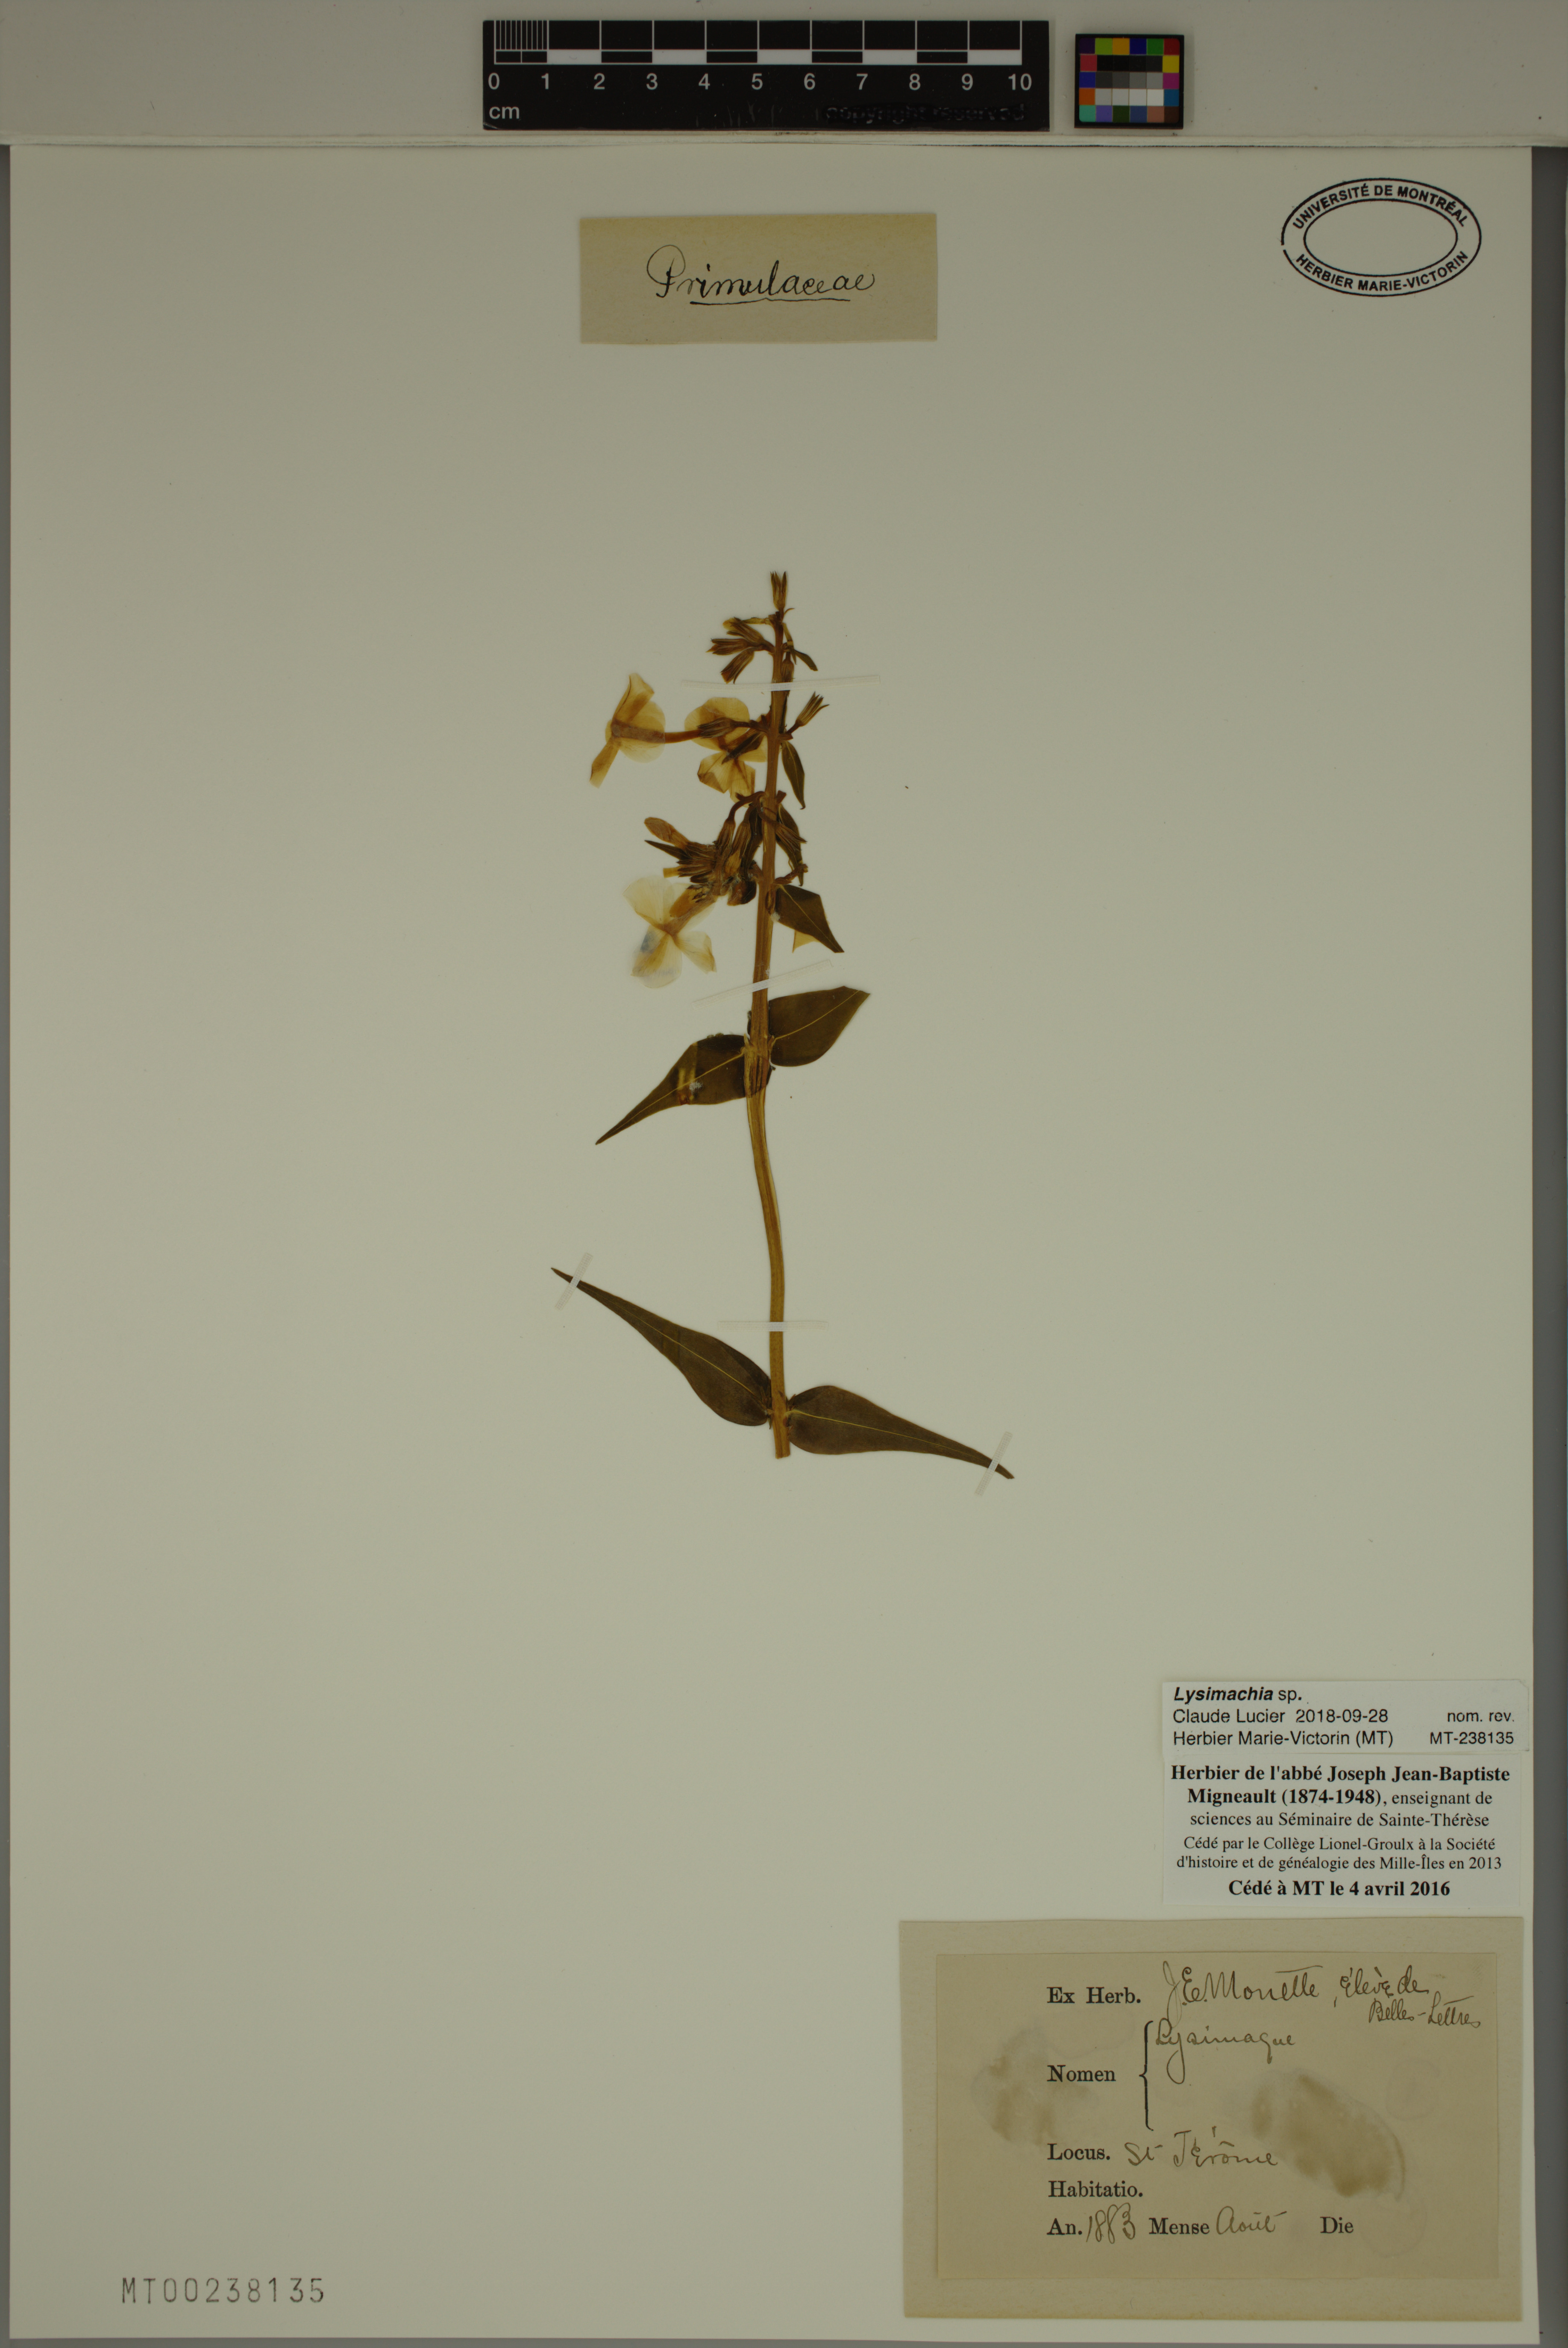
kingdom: Plantae
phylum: Tracheophyta
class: Magnoliopsida
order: Ericales
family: Primulaceae
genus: Lysimachia
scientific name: Lysimachia
